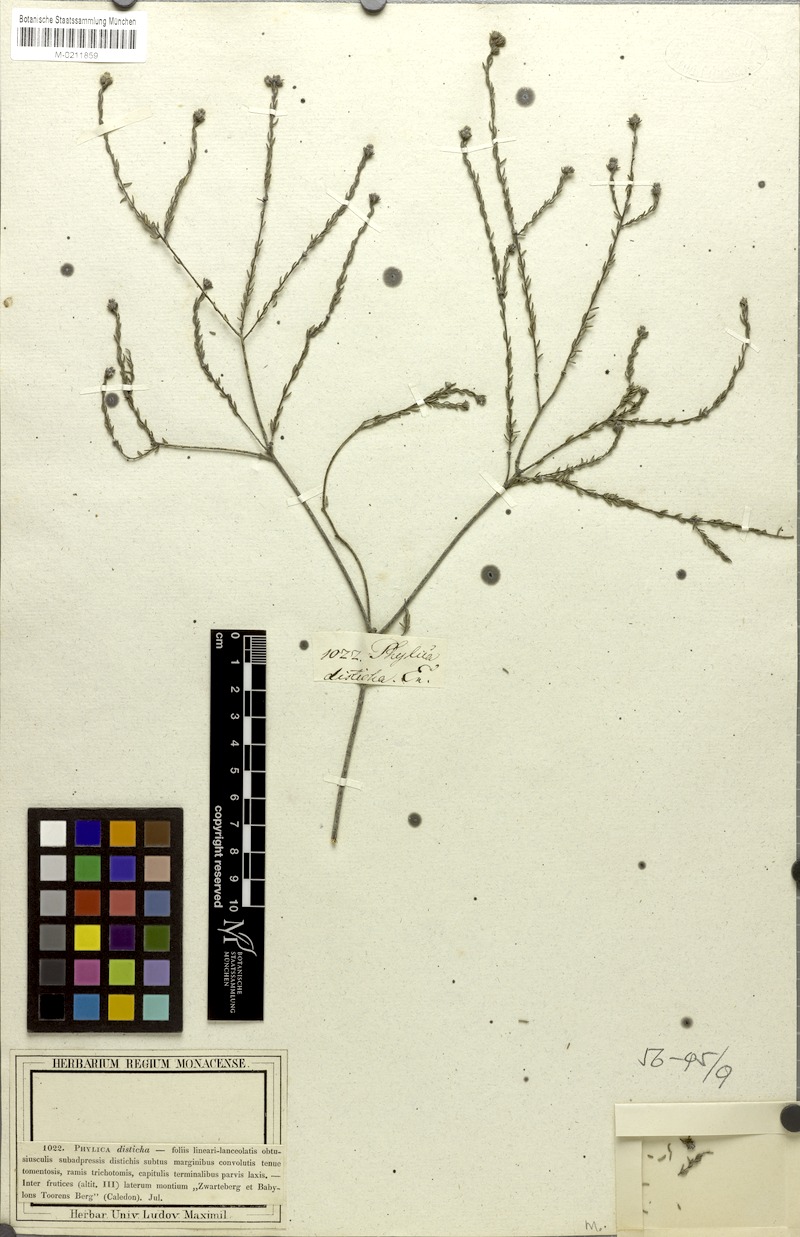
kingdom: Plantae
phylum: Tracheophyta
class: Magnoliopsida
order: Rosales
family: Rhamnaceae
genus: Phylica
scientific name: Phylica disticha
